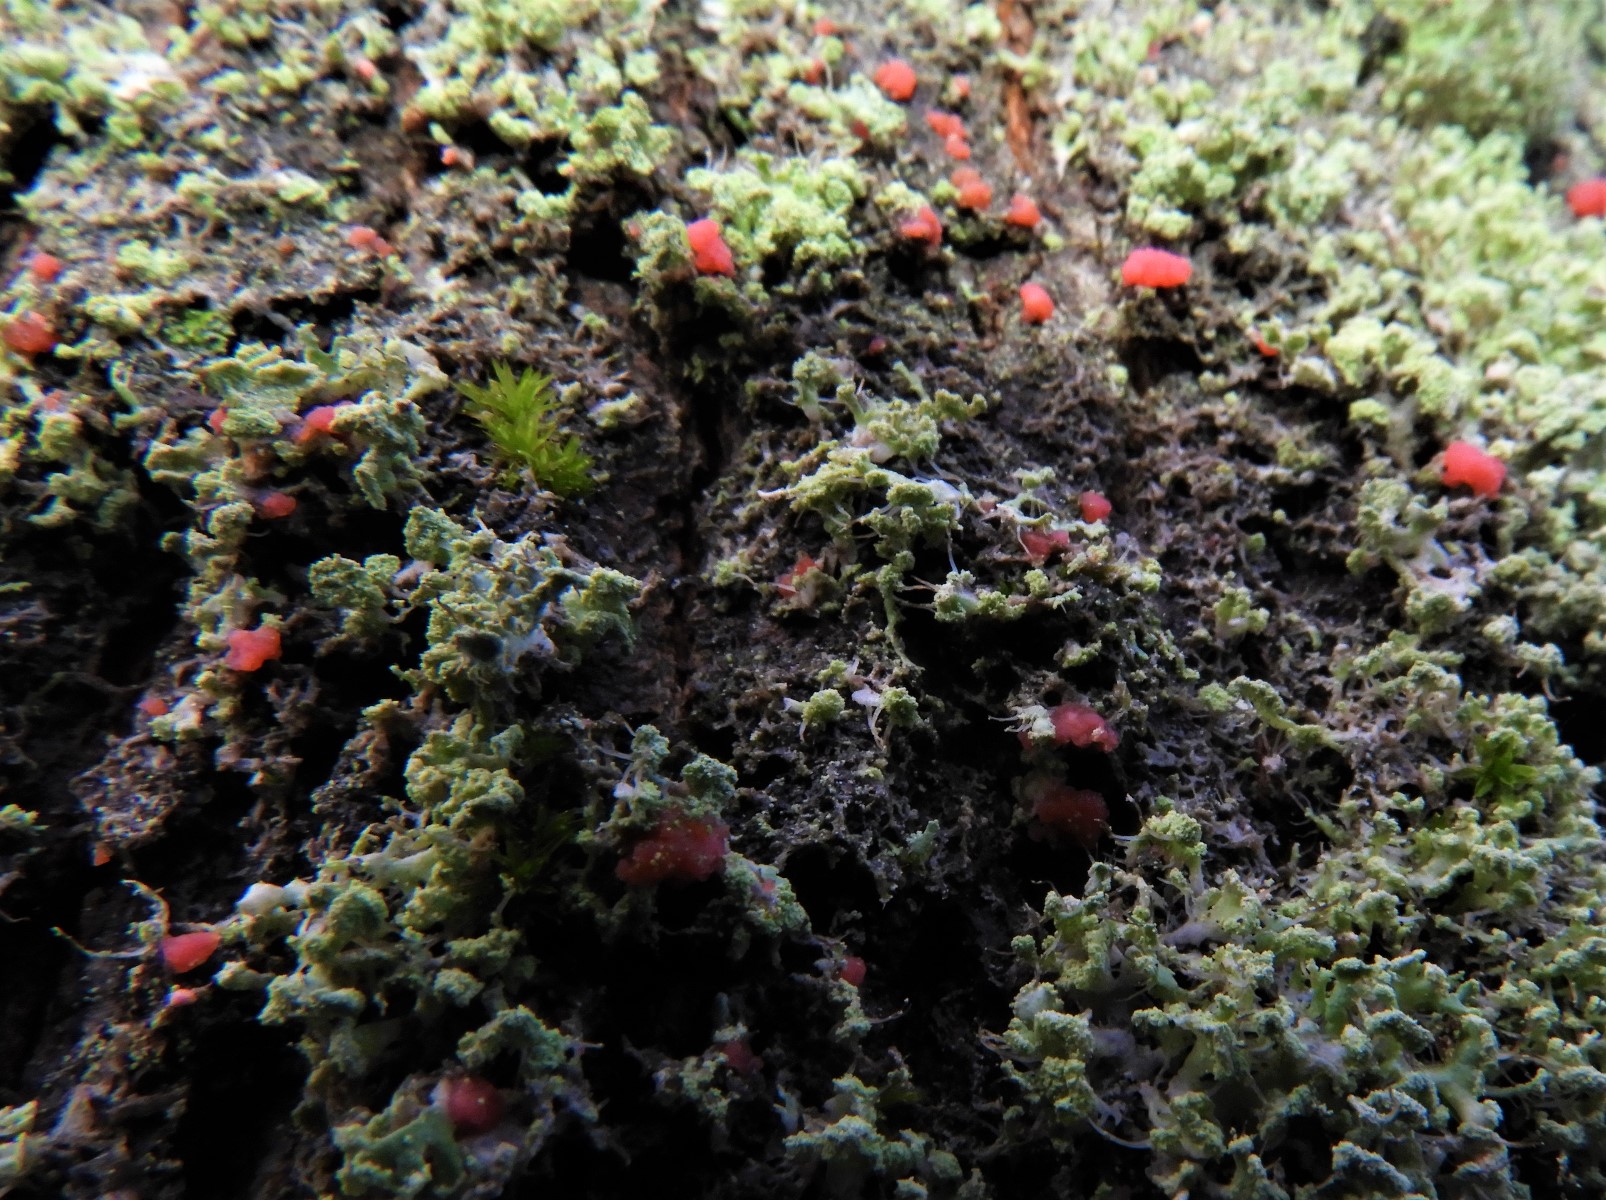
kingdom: Fungi
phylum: Ascomycota
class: Sordariomycetes
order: Hypocreales
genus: Illosporiopsis
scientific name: Illosporiopsis christiansenii
